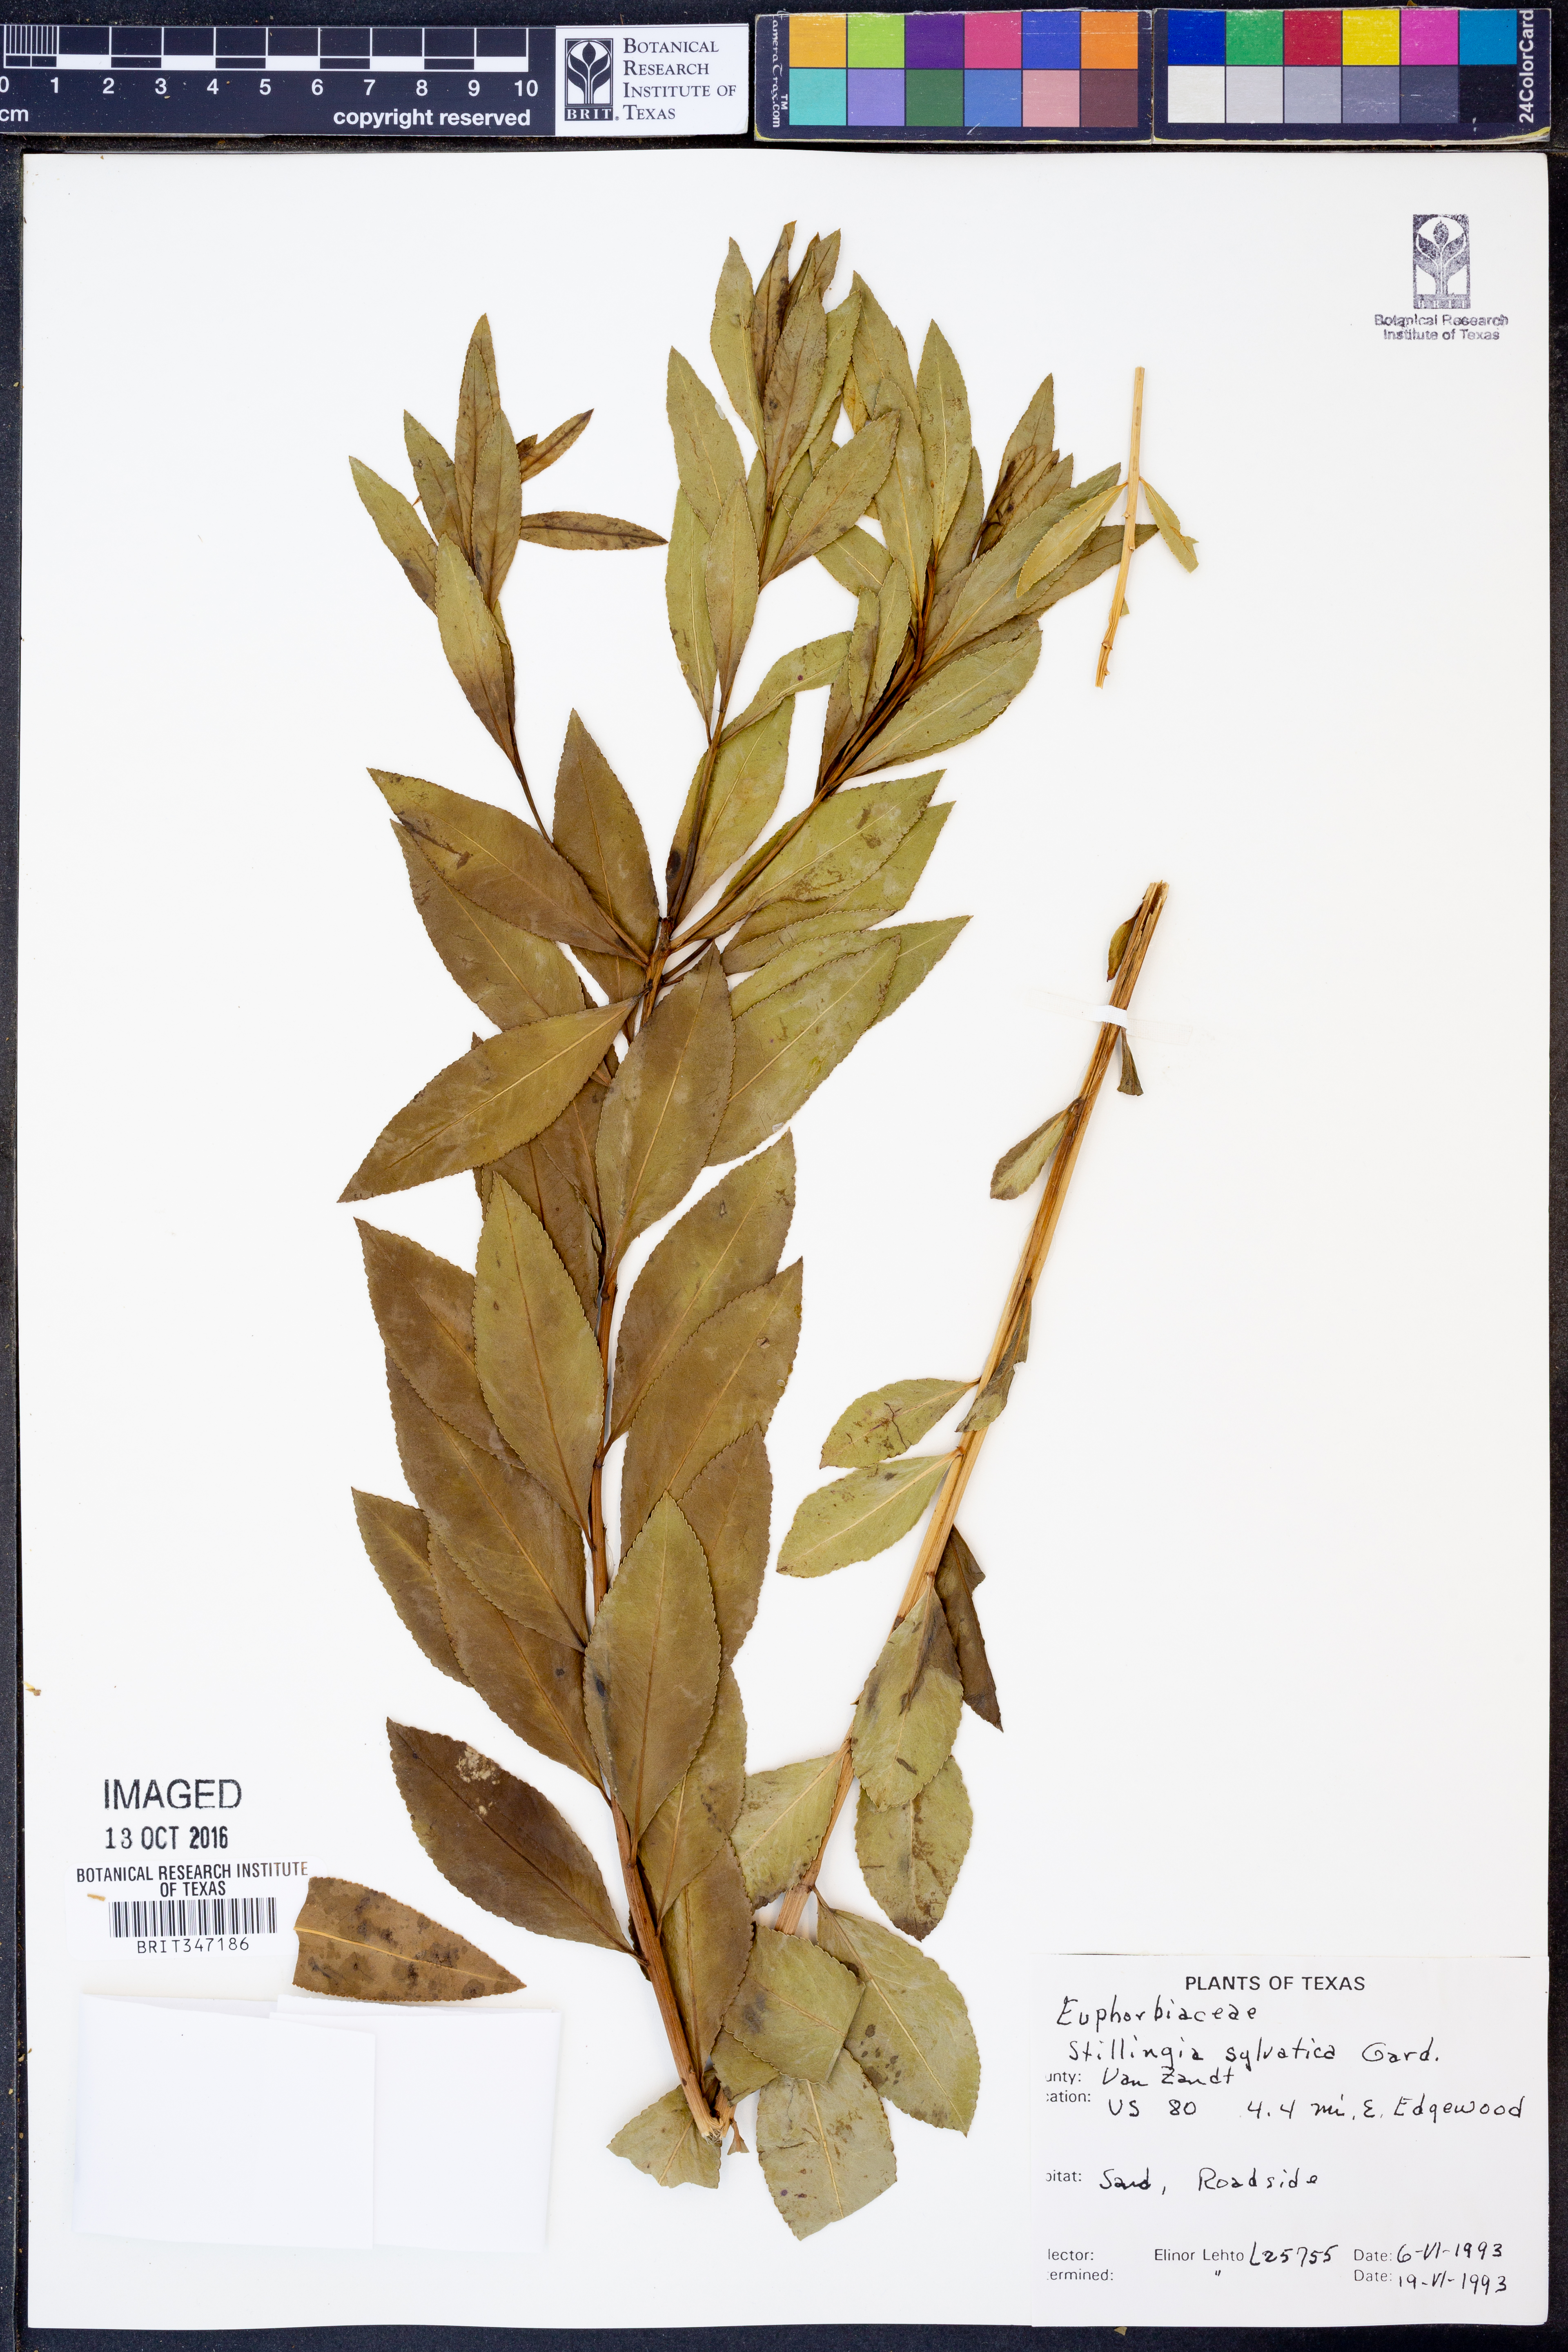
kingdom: Plantae
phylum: Tracheophyta
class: Magnoliopsida
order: Malpighiales
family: Euphorbiaceae
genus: Stillingia
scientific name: Stillingia sylvatica
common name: Queen's-delight
